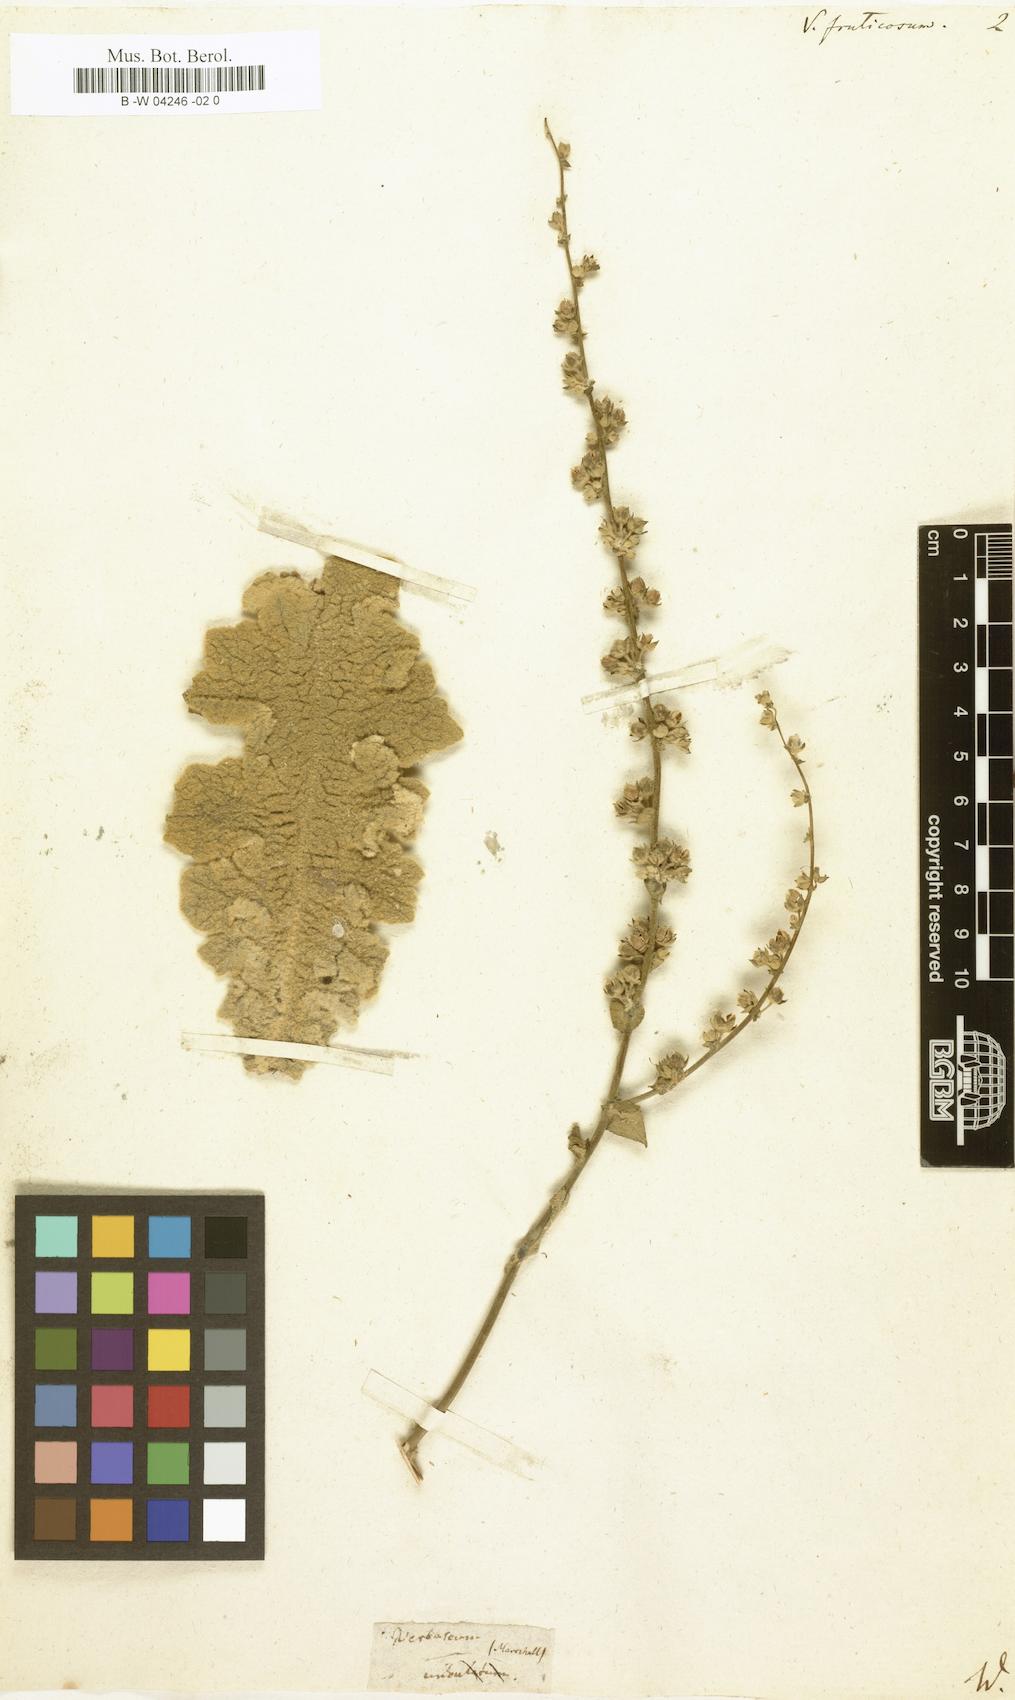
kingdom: Plantae
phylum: Tracheophyta
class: Magnoliopsida
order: Lamiales
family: Scrophulariaceae
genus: Verbascum
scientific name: Verbascum fruticulosum
